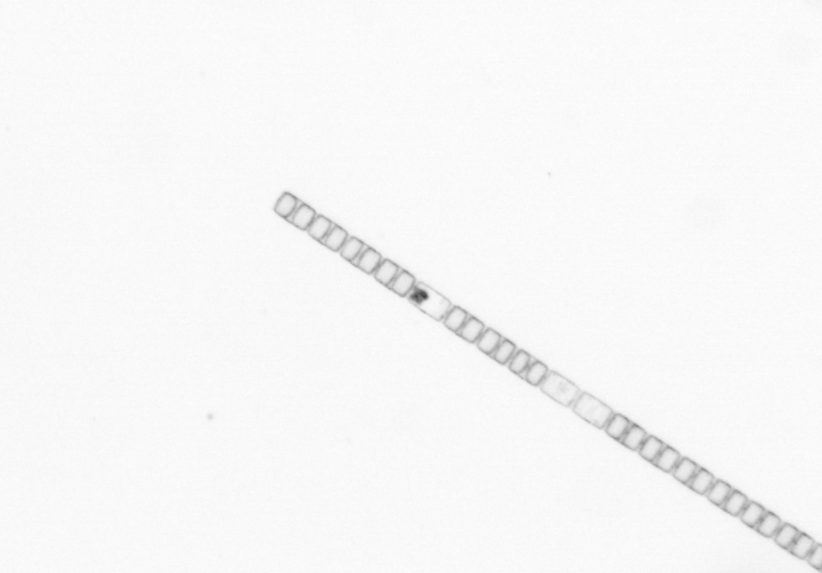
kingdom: Chromista
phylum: Ochrophyta
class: Bacillariophyceae
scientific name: Bacillariophyceae
